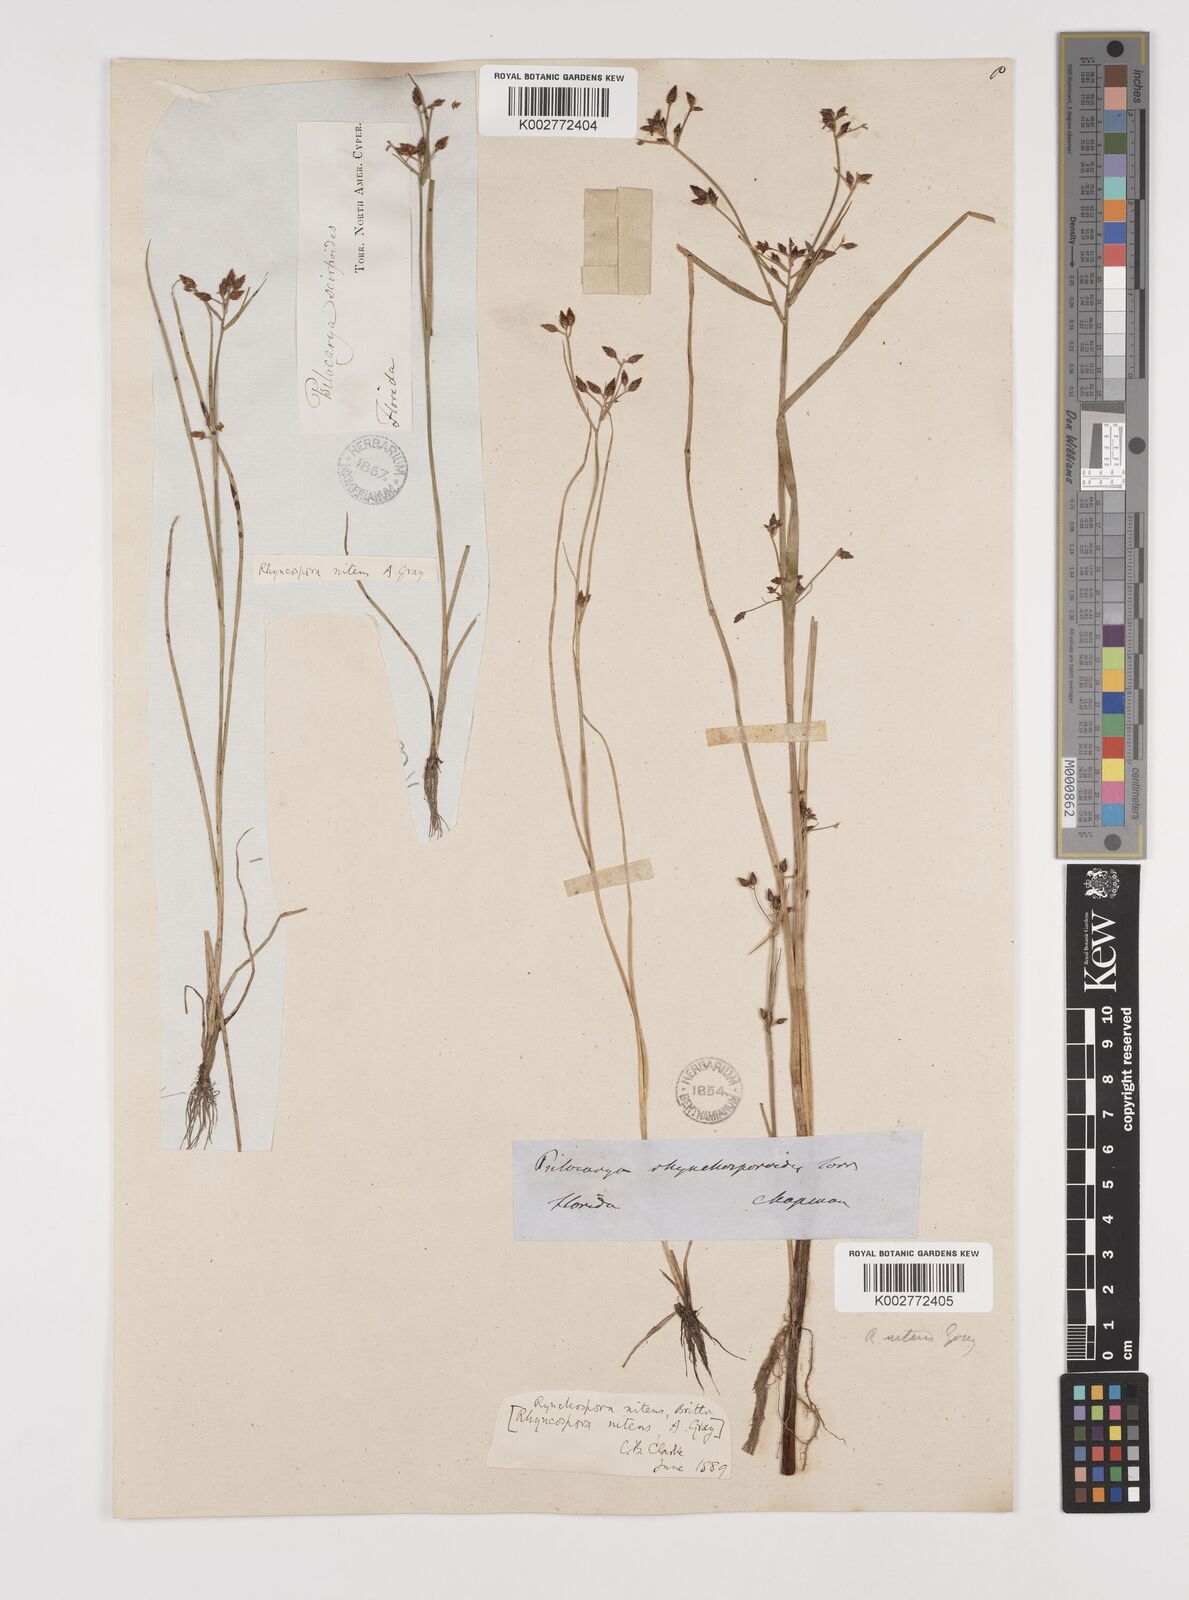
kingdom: Plantae
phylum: Tracheophyta
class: Liliopsida
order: Poales
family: Cyperaceae
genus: Rhynchospora
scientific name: Rhynchospora nitens
